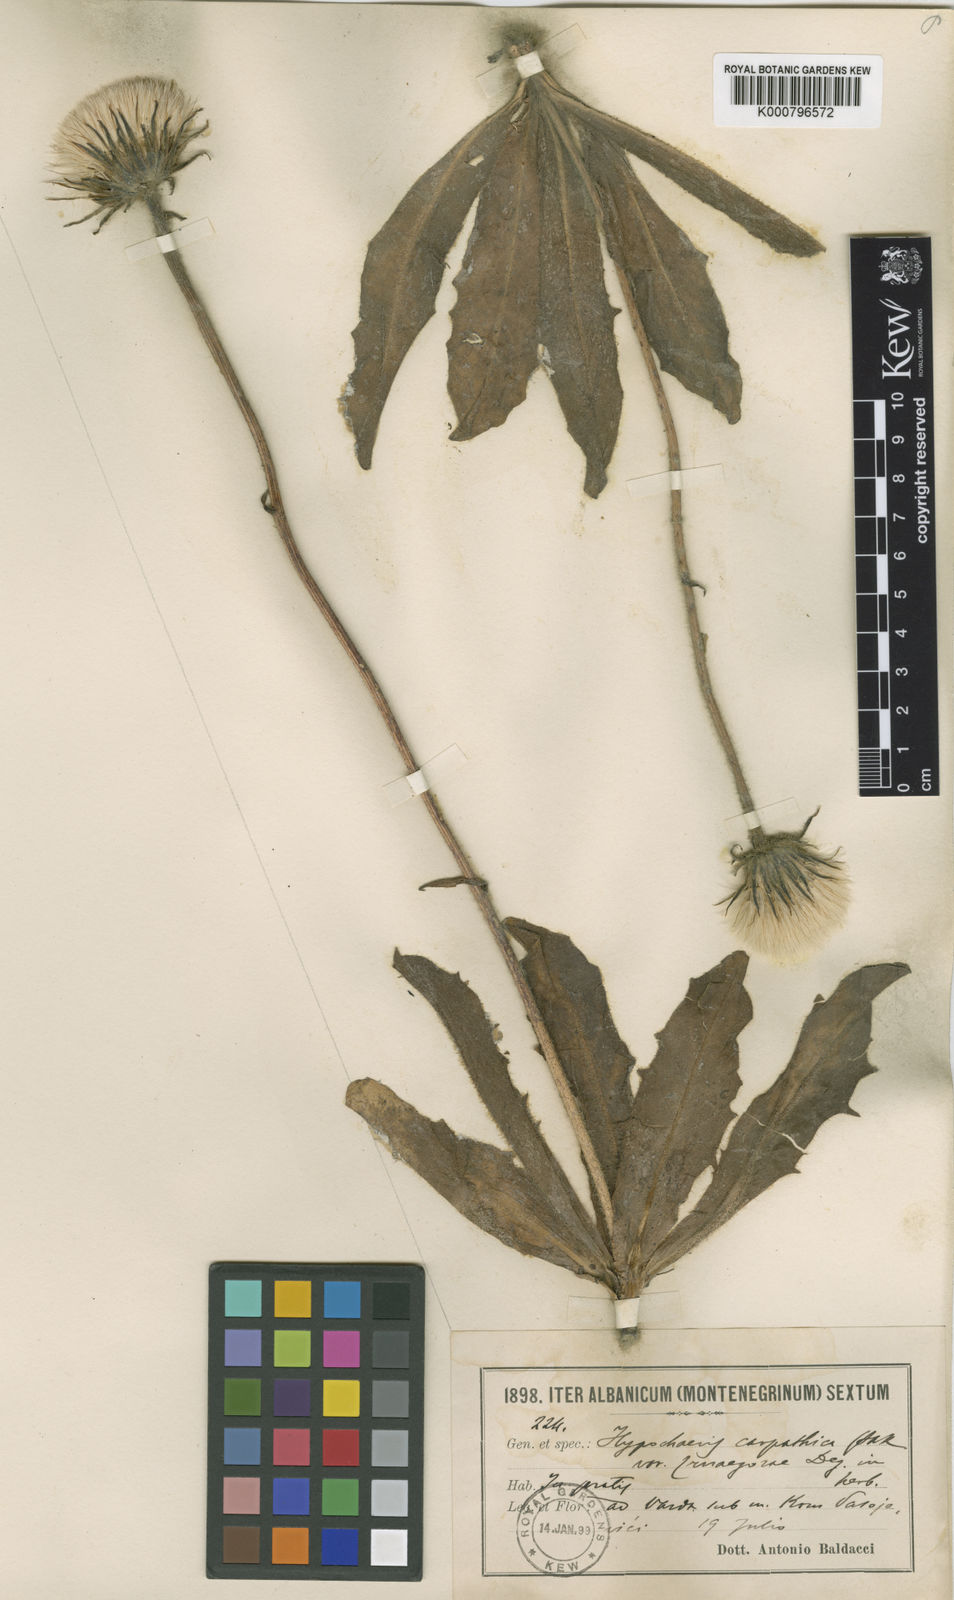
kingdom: Plantae
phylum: Tracheophyta
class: Magnoliopsida
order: Asterales
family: Asteraceae
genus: Trommsdorffia
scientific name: Trommsdorffia maculata
